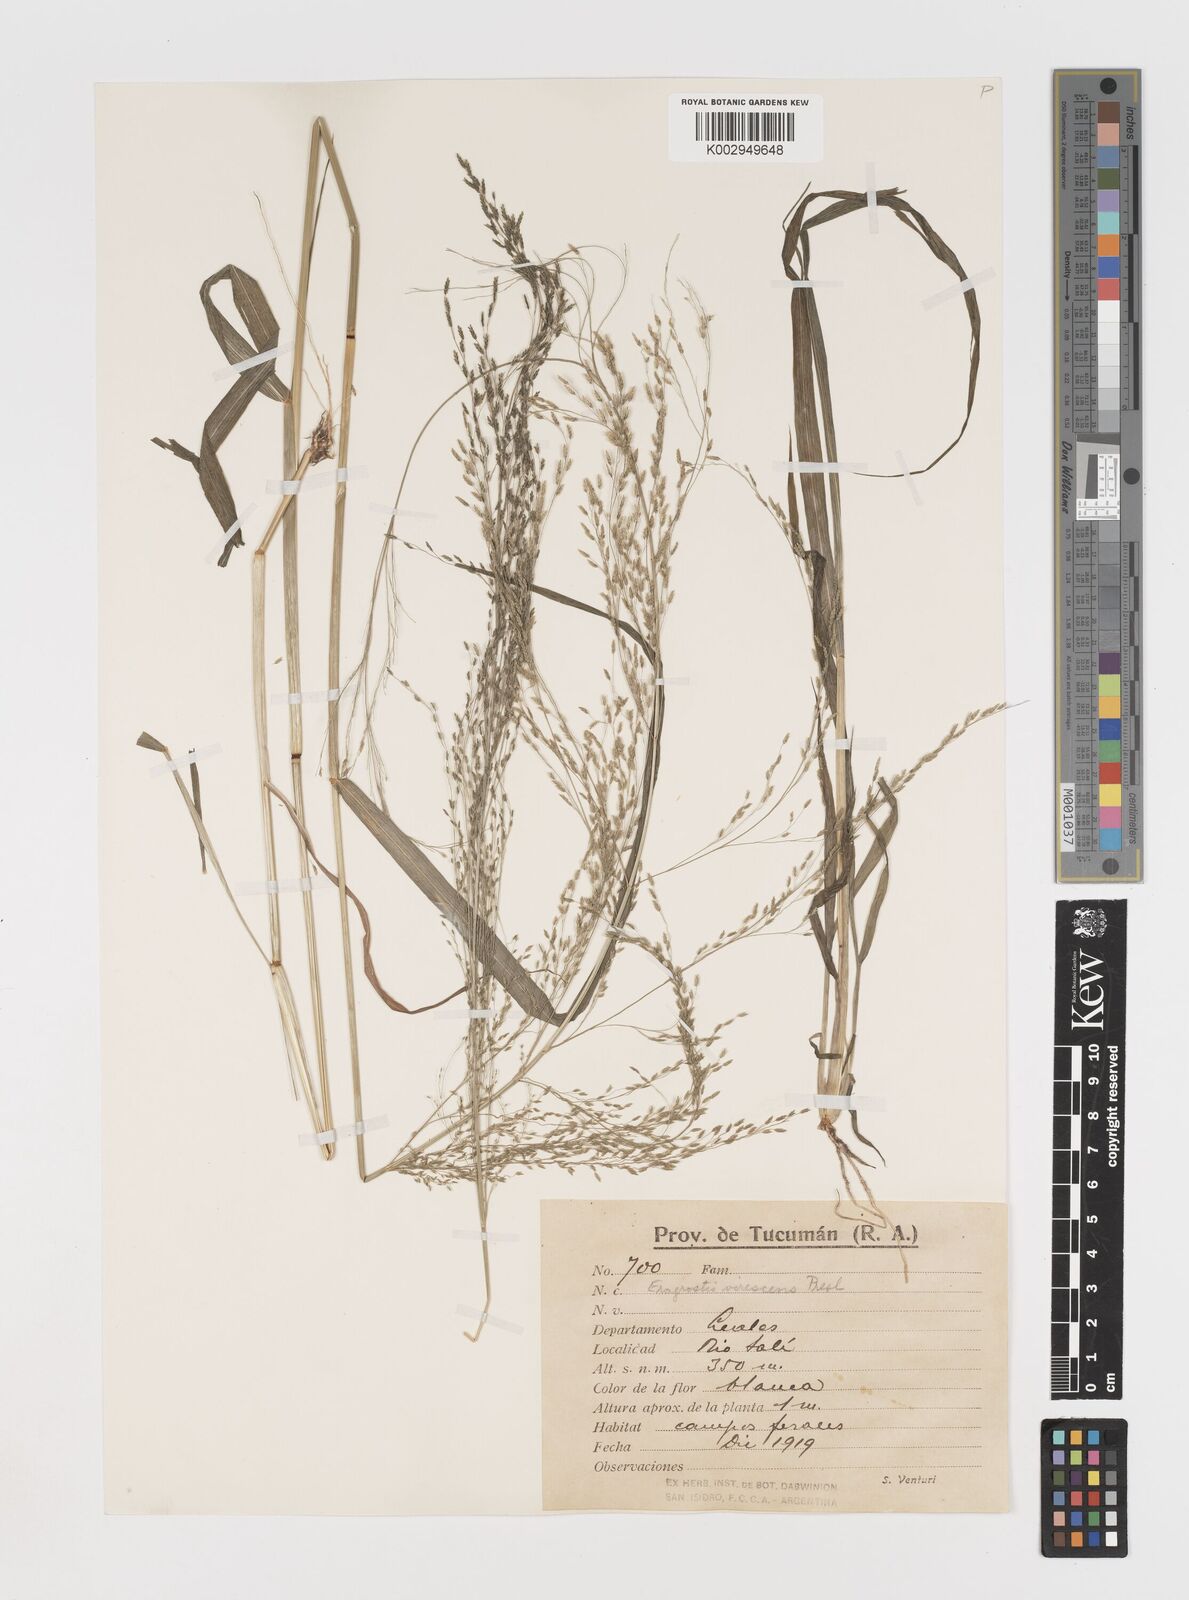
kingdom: Plantae
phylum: Tracheophyta
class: Liliopsida
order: Poales
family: Poaceae
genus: Eragrostis
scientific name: Eragrostis mexicana
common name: Mexican love grass
